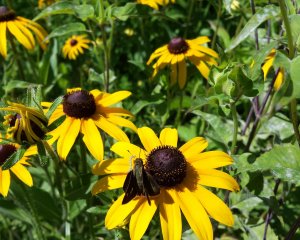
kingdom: Animalia
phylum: Arthropoda
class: Insecta
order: Lepidoptera
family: Hesperiidae
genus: Polites
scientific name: Polites egeremet
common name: Northern Broken-Dash
